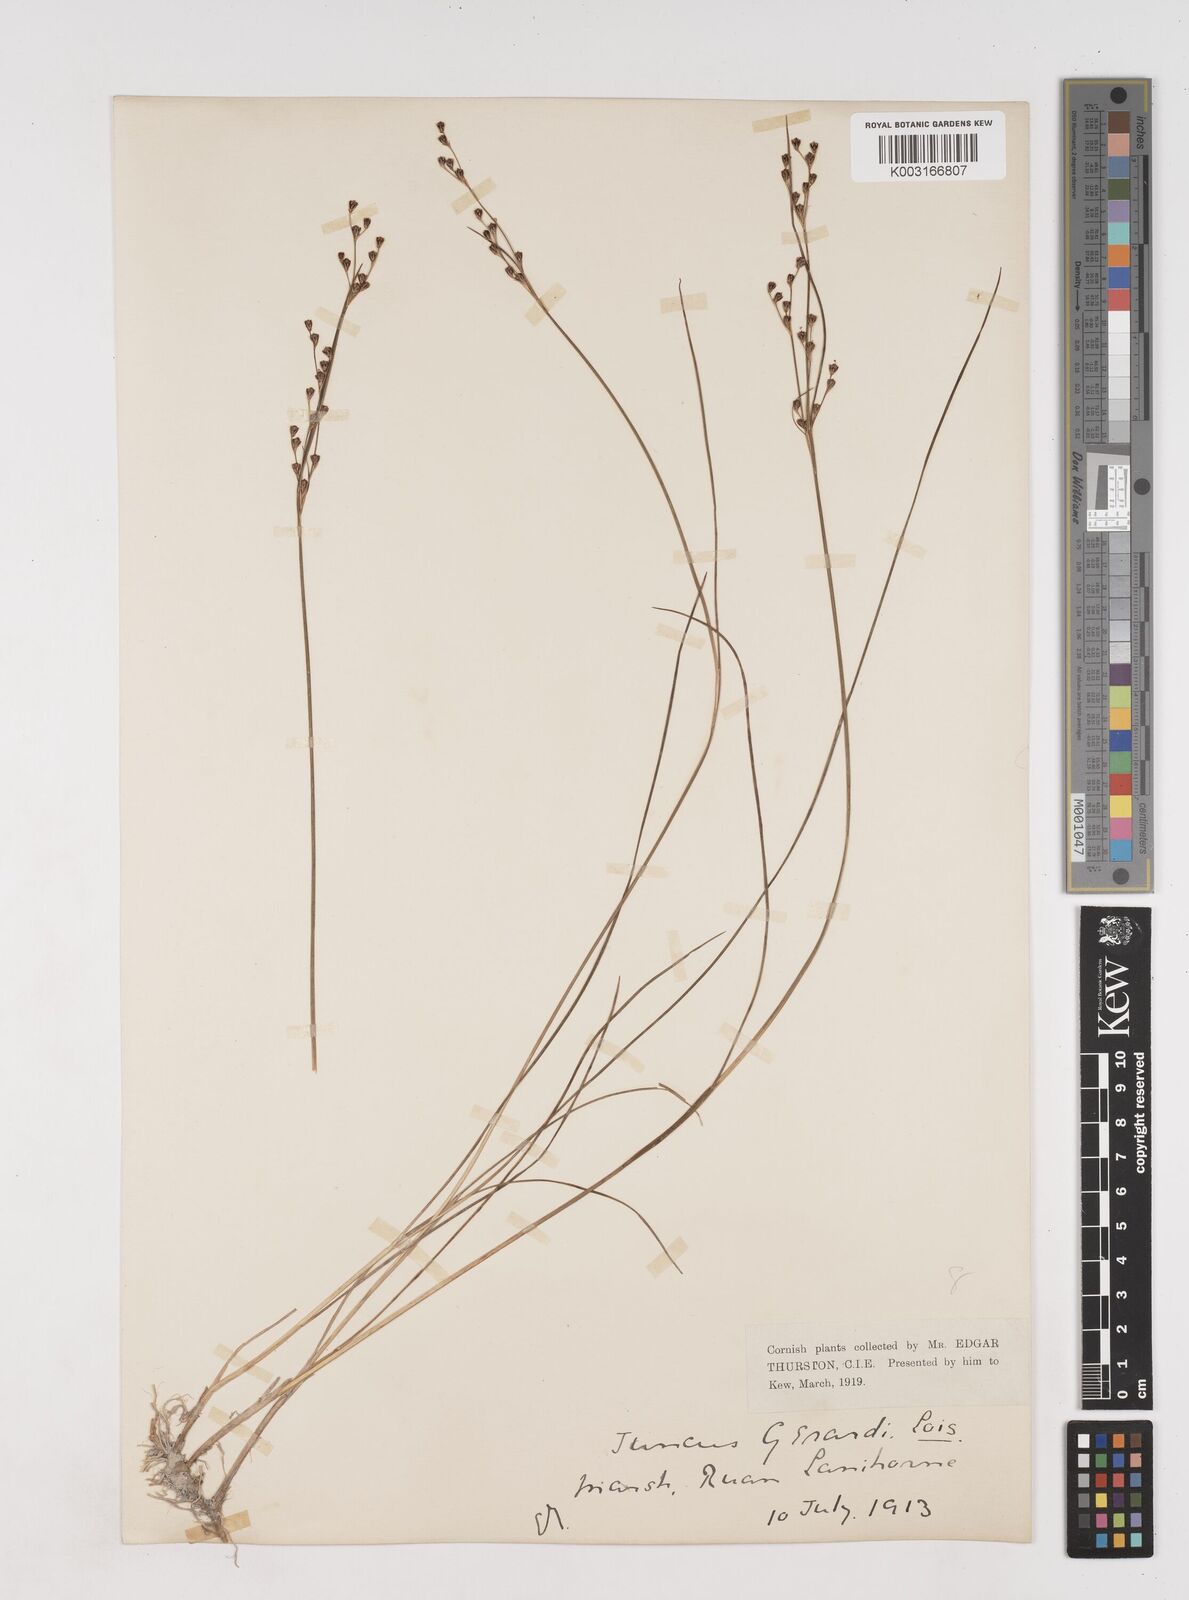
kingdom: Plantae
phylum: Tracheophyta
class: Liliopsida
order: Poales
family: Juncaceae
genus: Juncus
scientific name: Juncus gerardi
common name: Saltmarsh rush
